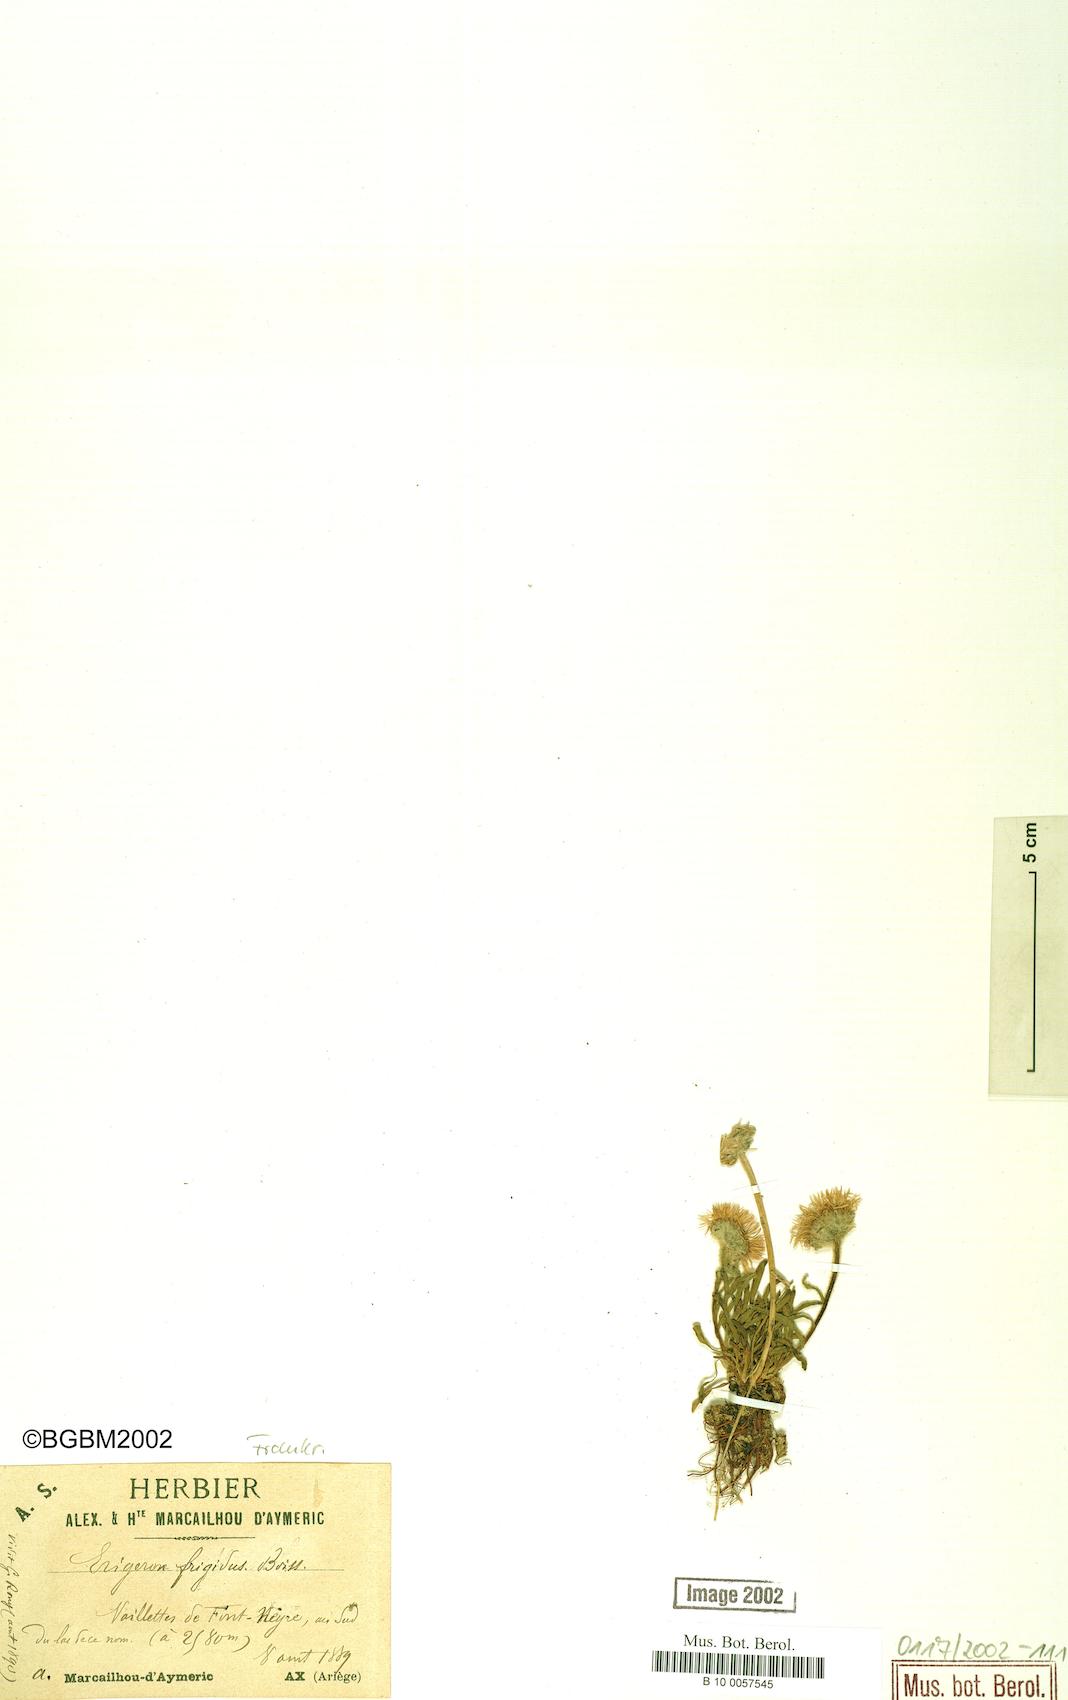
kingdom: Plantae
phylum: Tracheophyta
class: Magnoliopsida
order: Asterales
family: Asteraceae
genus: Erigeron
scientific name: Erigeron aragonensis
